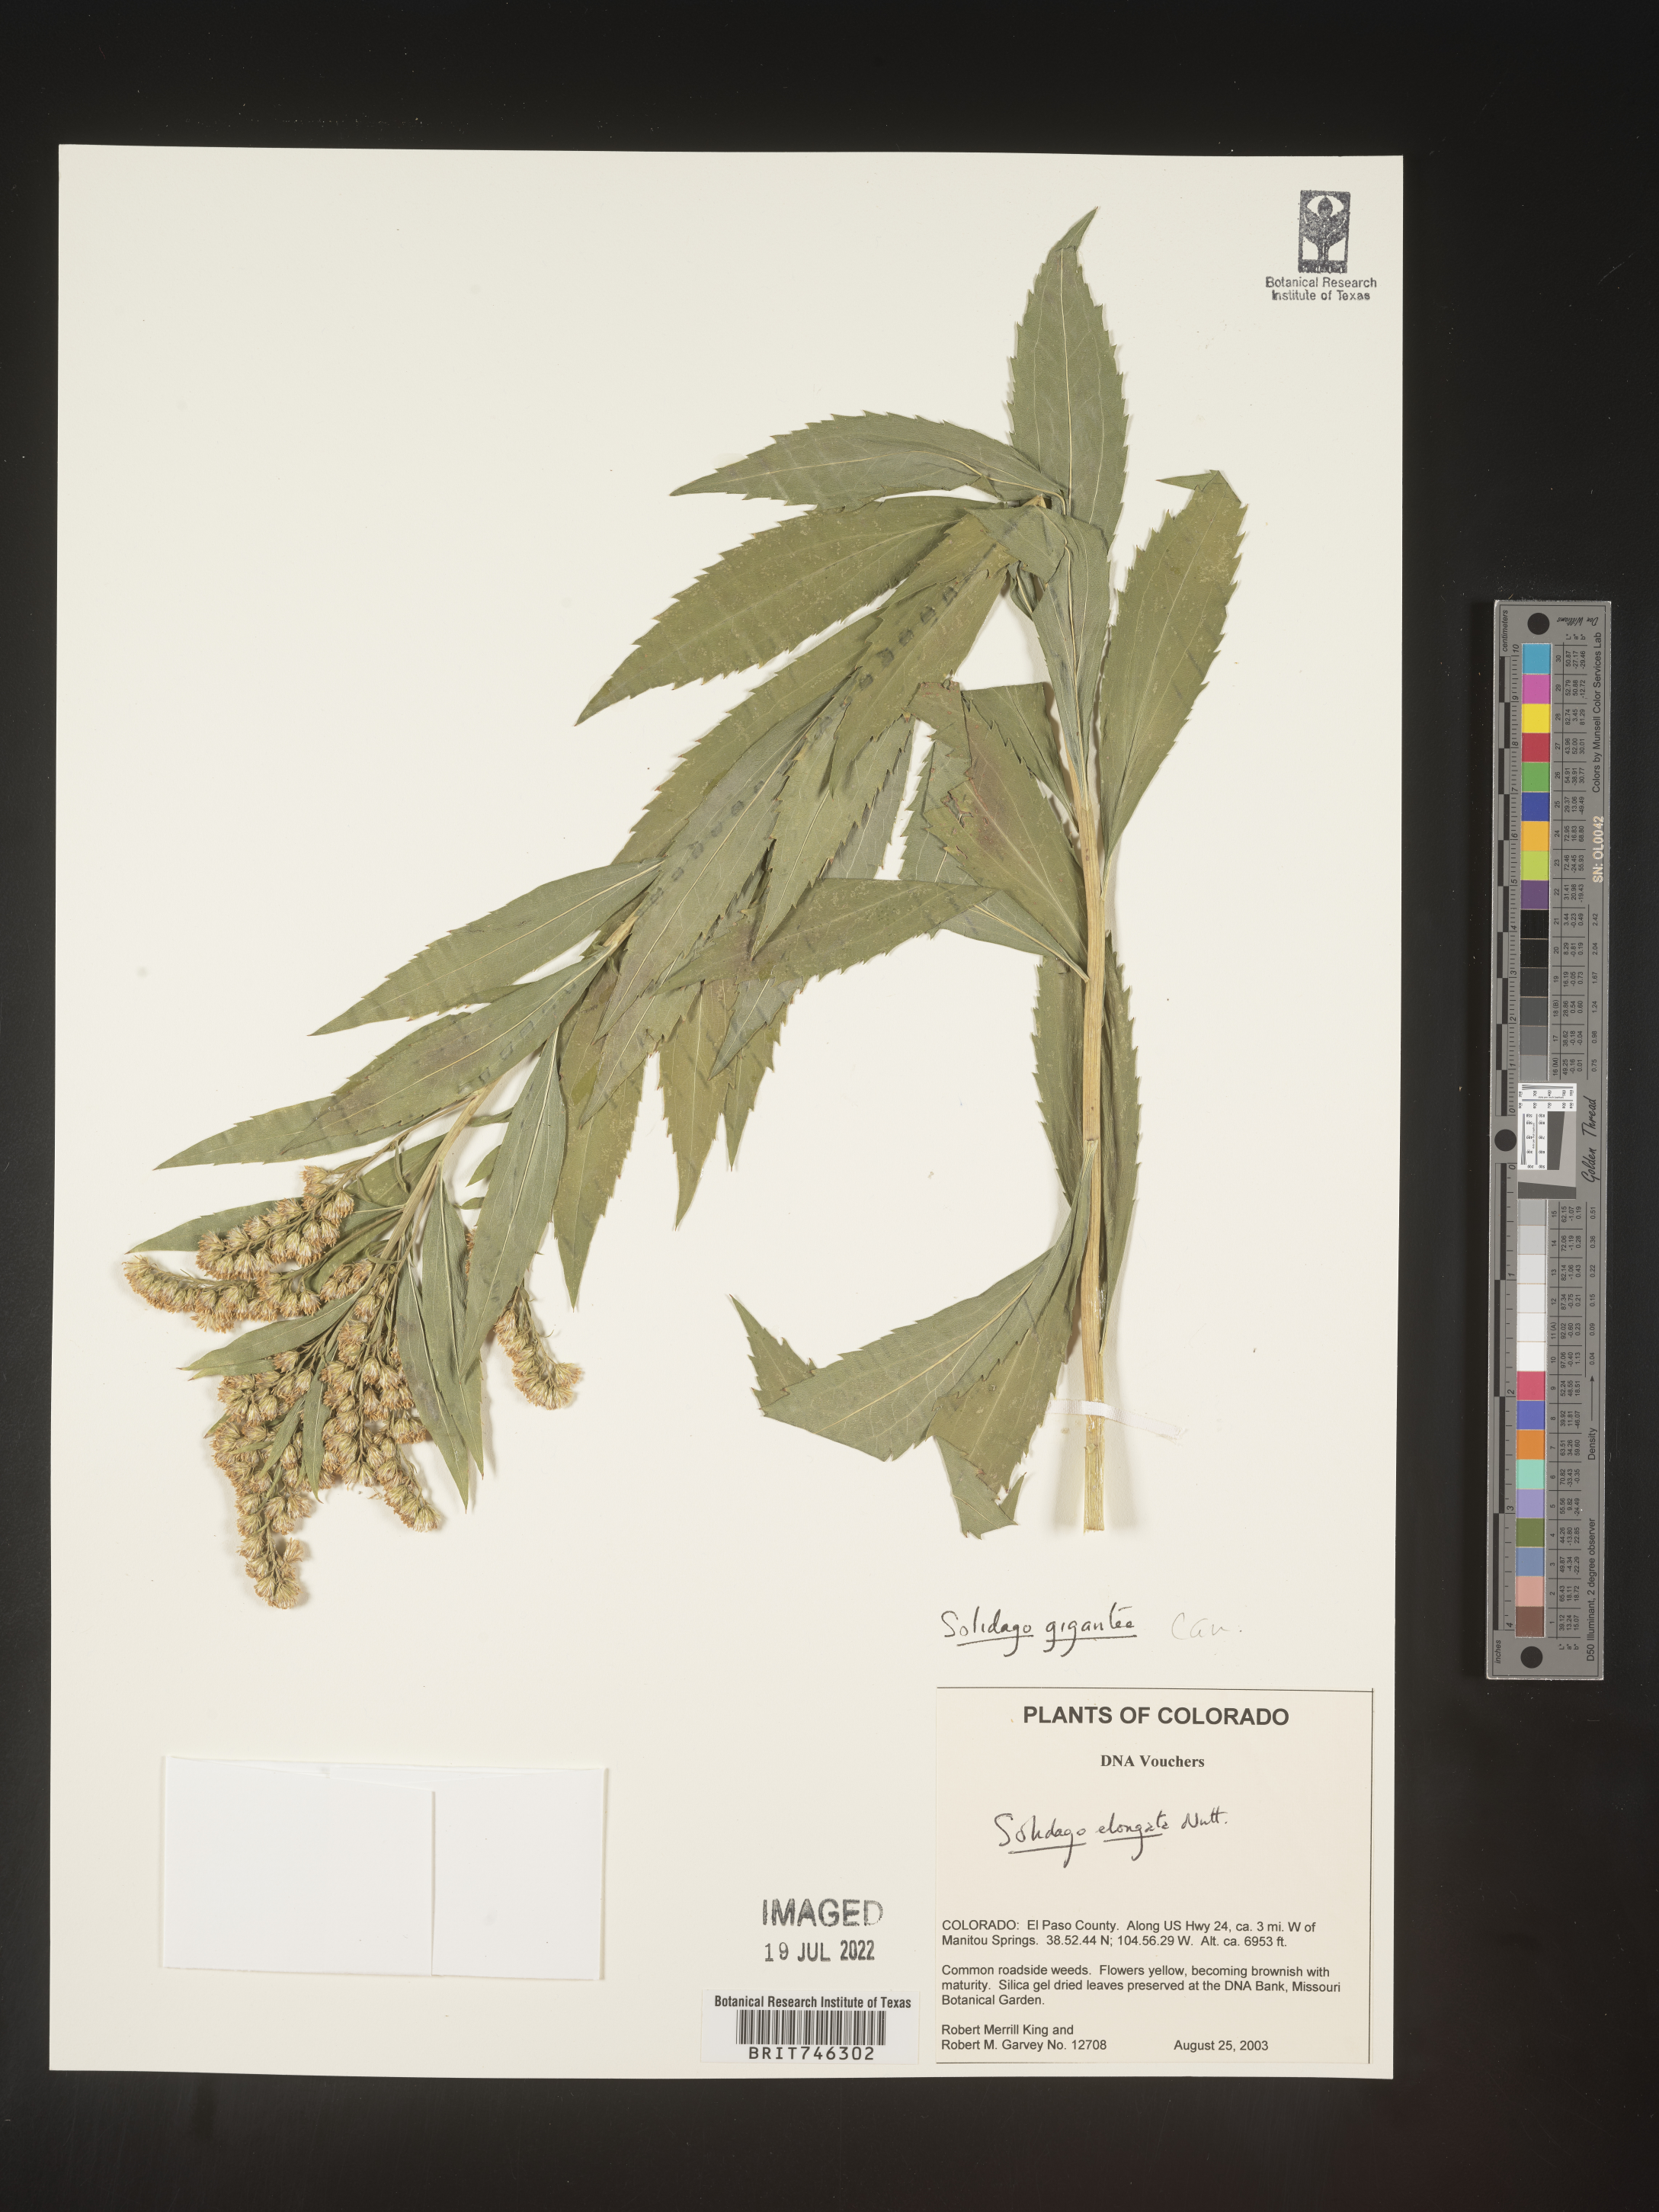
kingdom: Plantae
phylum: Tracheophyta
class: Magnoliopsida
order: Asterales
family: Asteraceae
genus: Solidago
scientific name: Solidago gigantea
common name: Giant goldenrod
